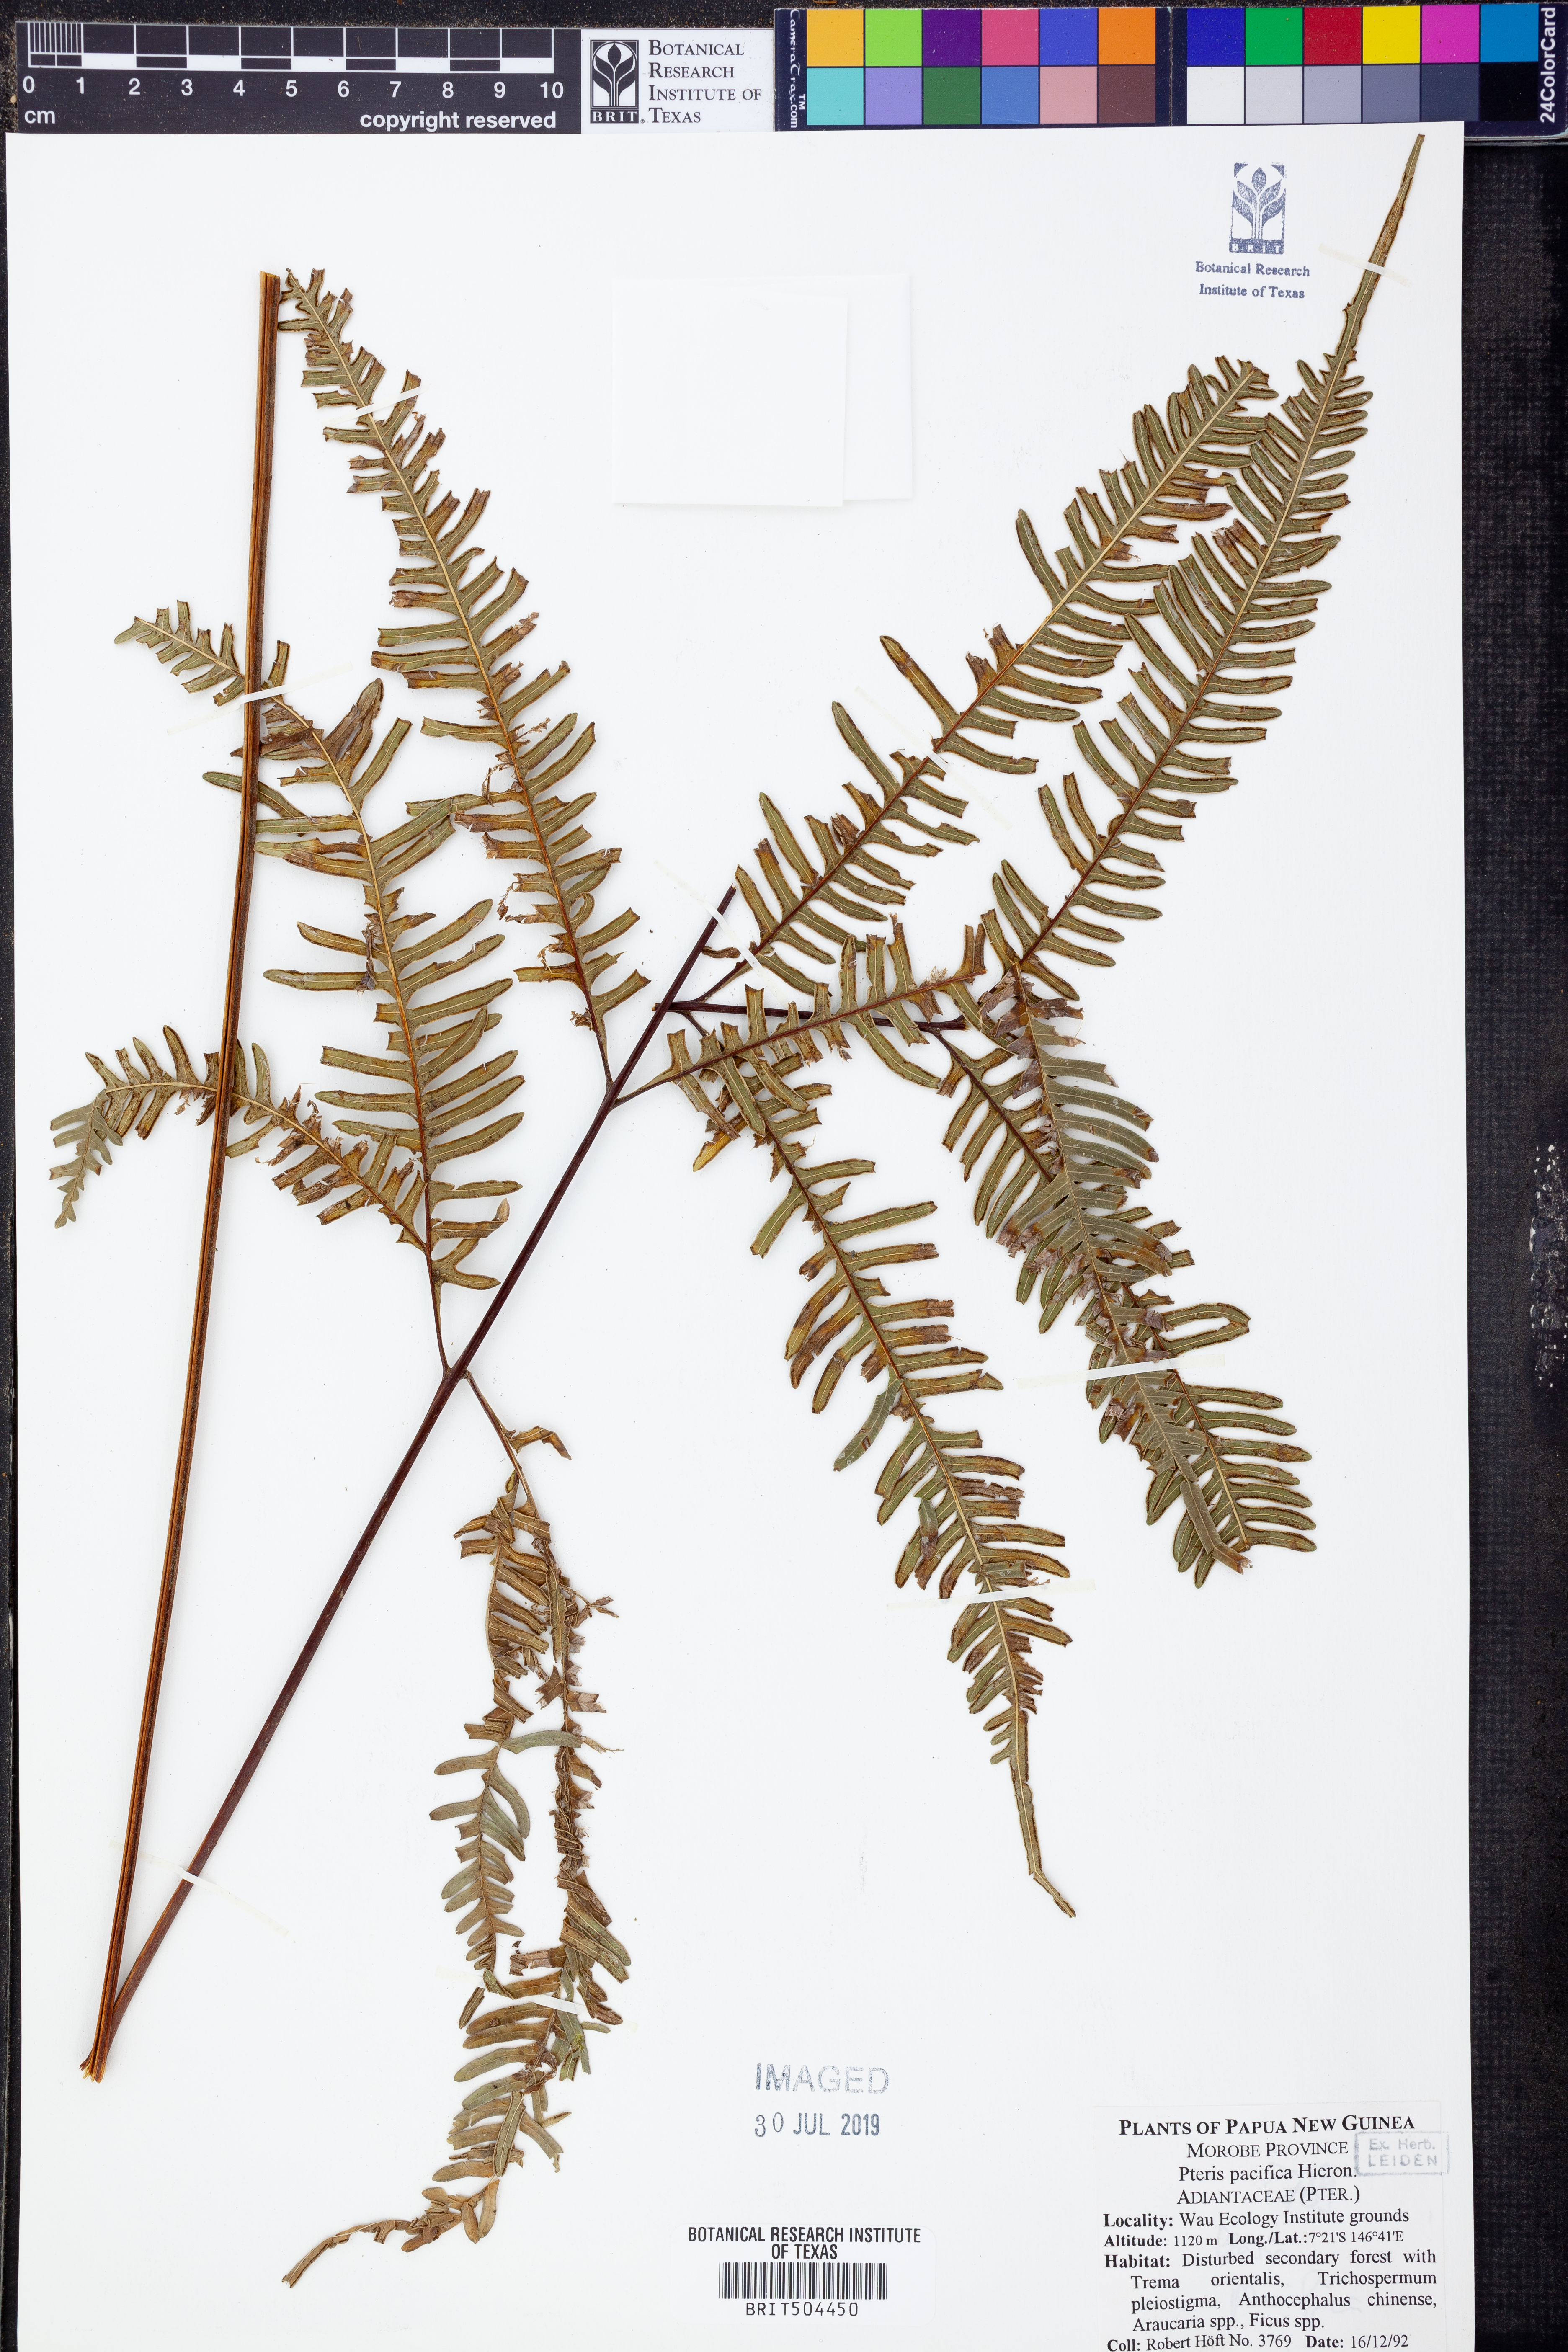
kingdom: Plantae
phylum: Tracheophyta
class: Polypodiopsida
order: Polypodiales
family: Pteridaceae
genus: Pteris
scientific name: Pteris biaurita
